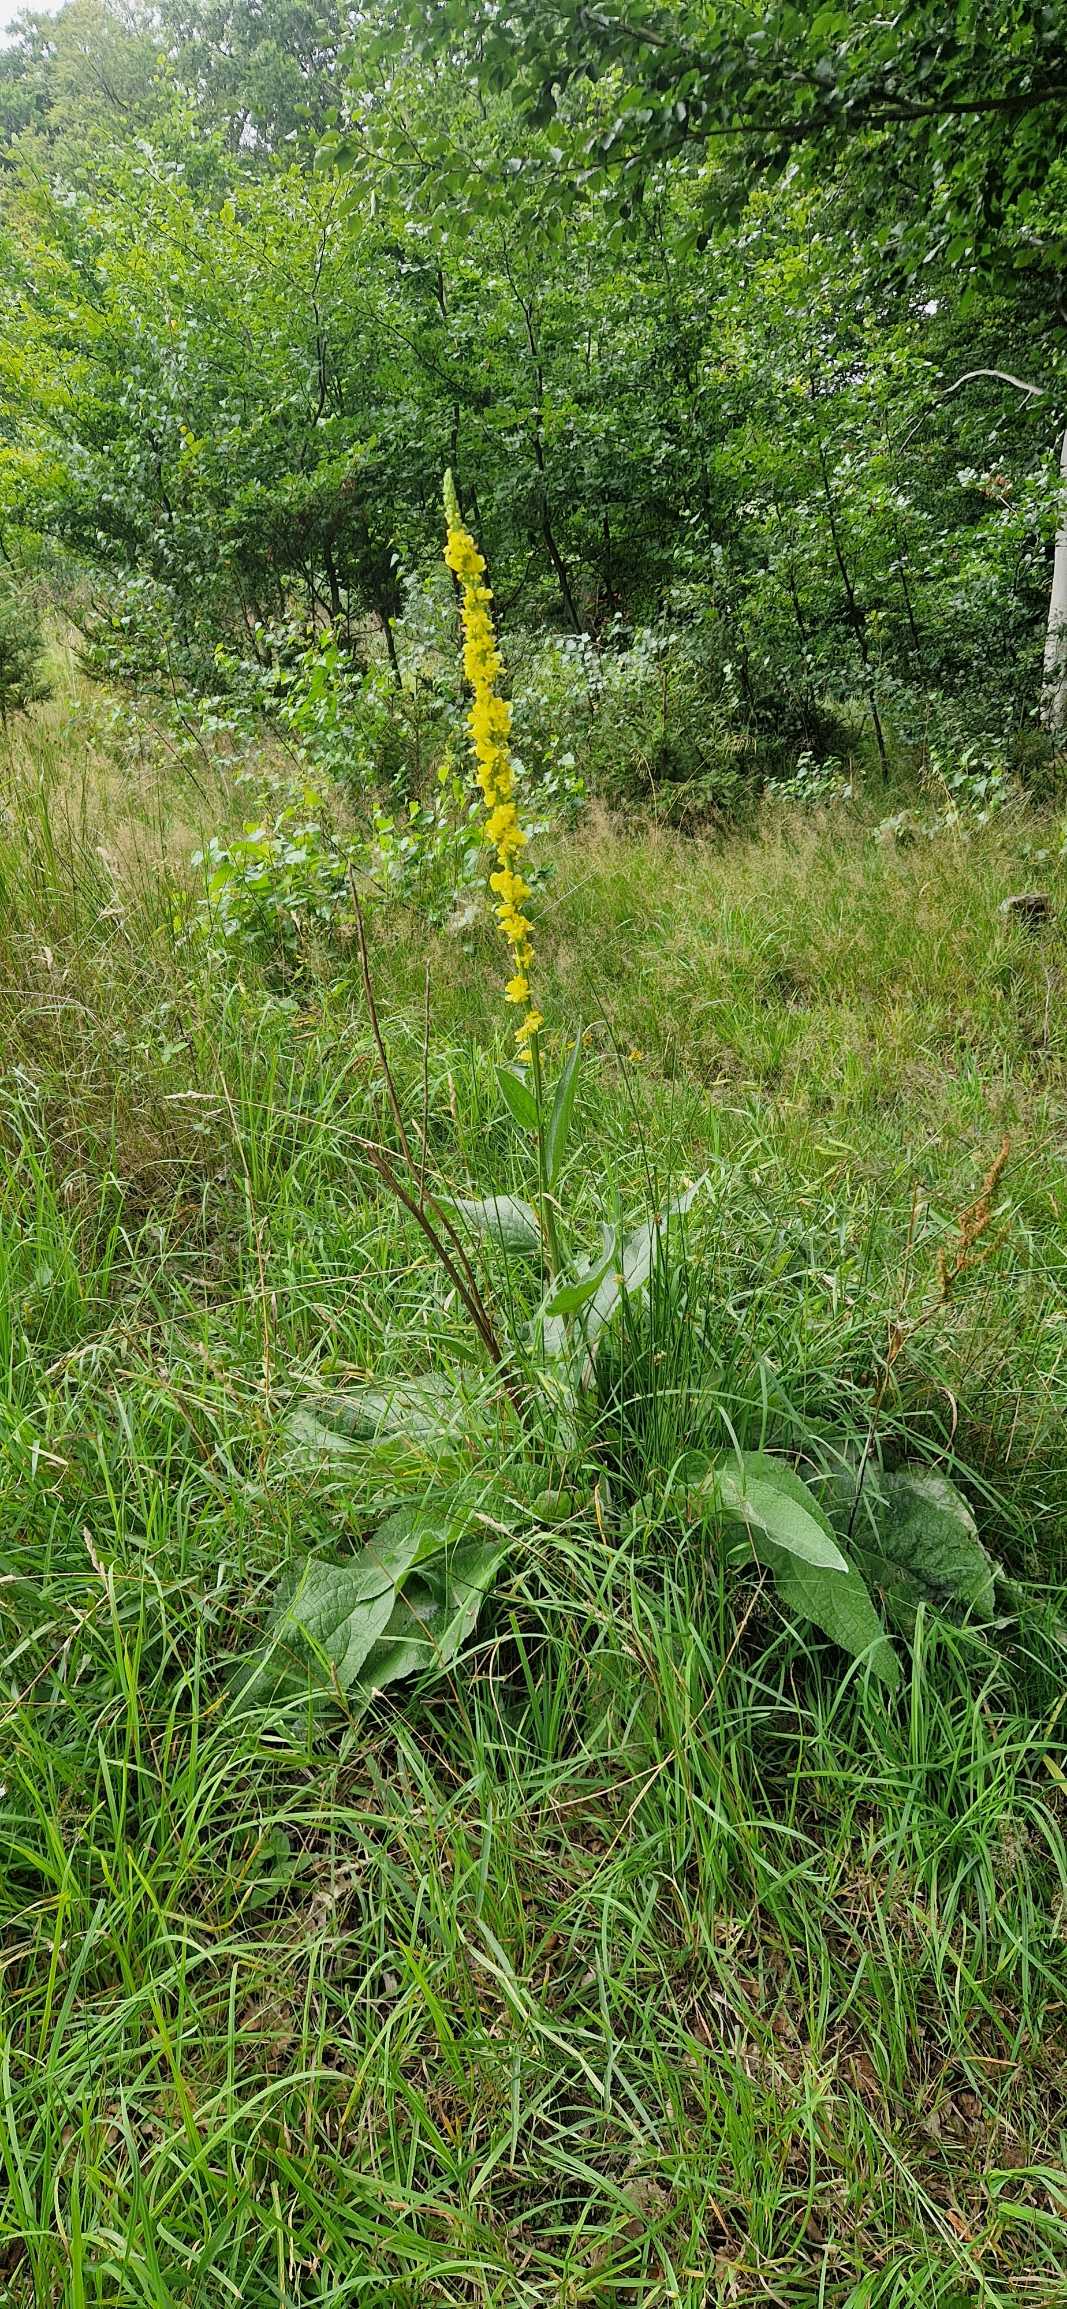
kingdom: Plantae
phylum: Tracheophyta
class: Magnoliopsida
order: Lamiales
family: Scrophulariaceae
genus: Verbascum
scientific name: Verbascum nigrum
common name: Mørk kongelys
